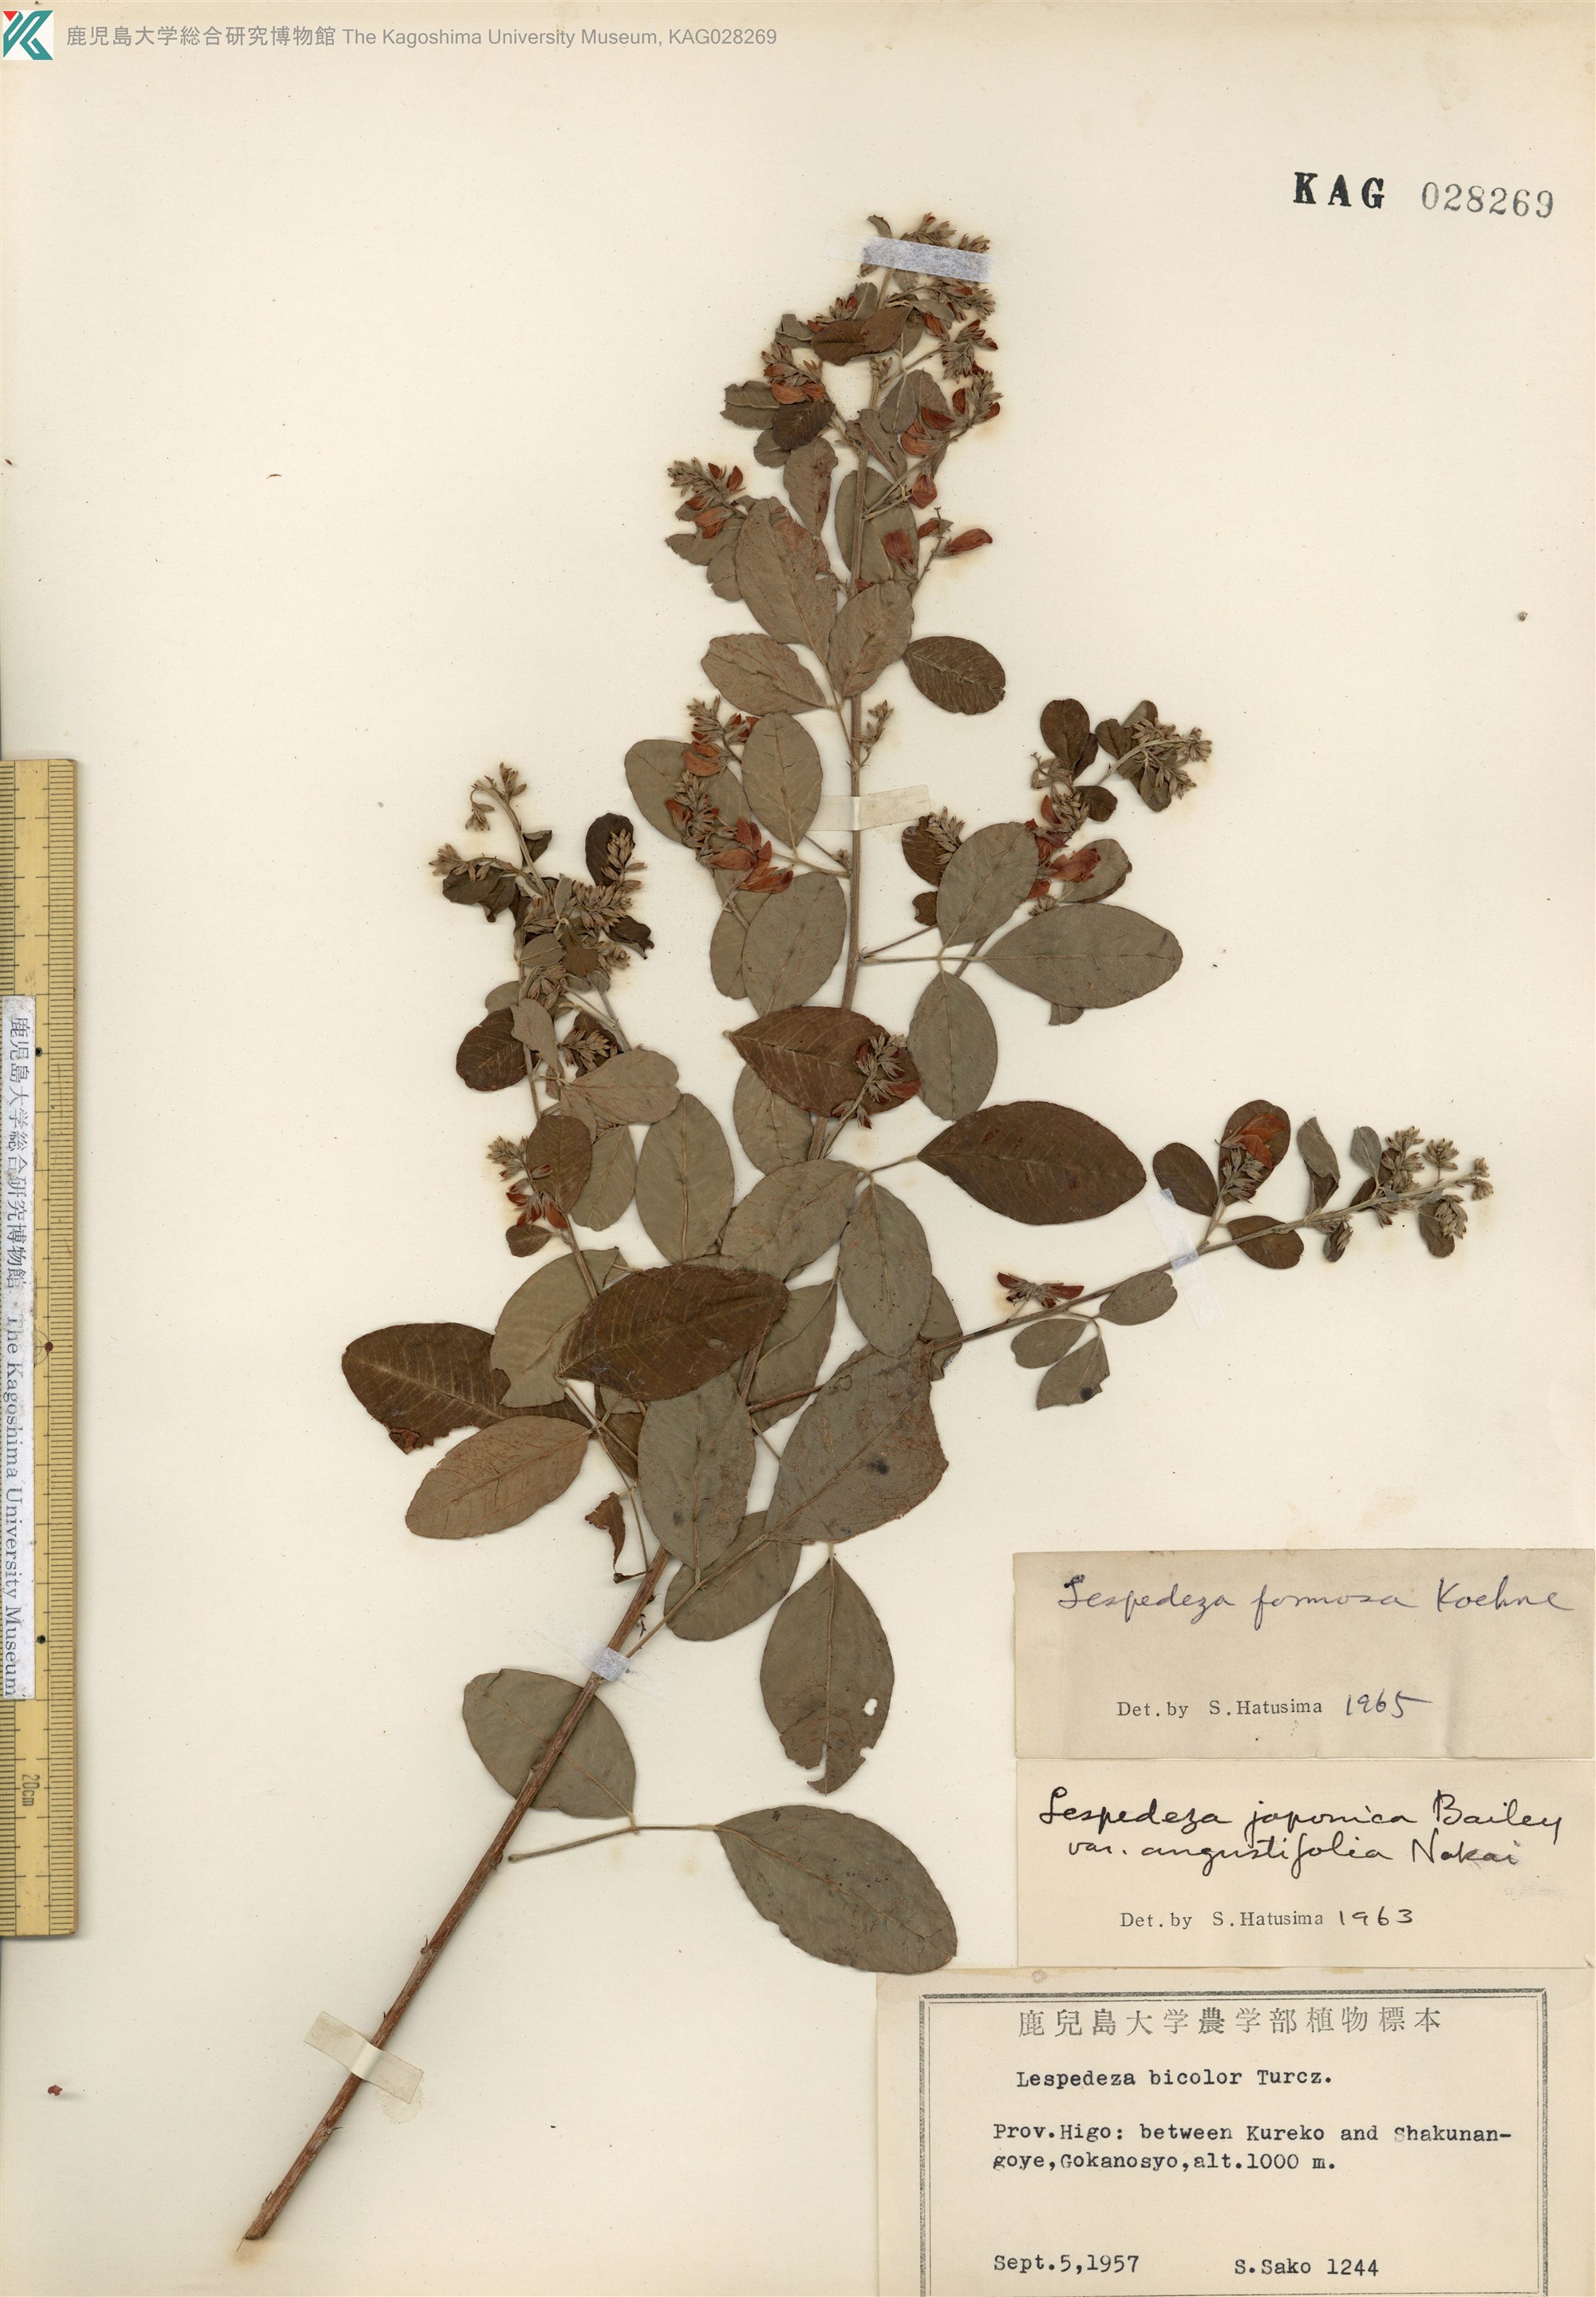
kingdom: Plantae
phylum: Tracheophyta
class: Magnoliopsida
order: Fabales
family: Fabaceae
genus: Lespedeza
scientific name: Lespedeza thunbergii
